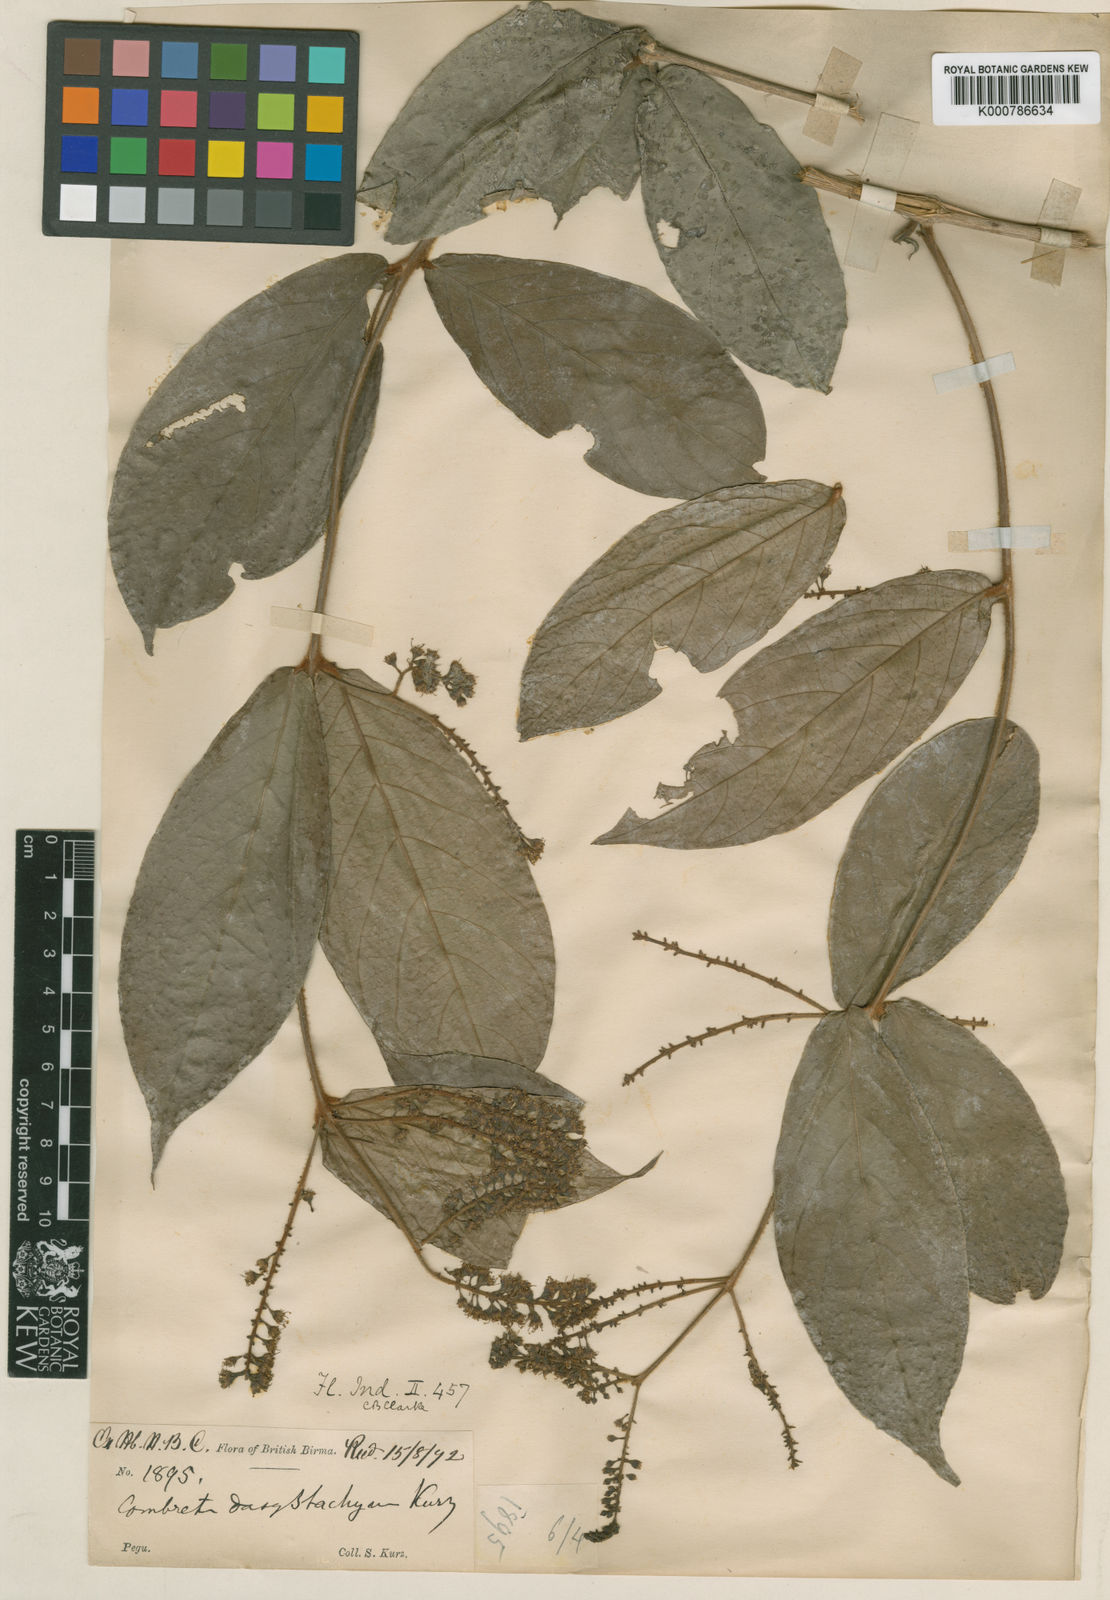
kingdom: Plantae
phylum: Tracheophyta
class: Magnoliopsida
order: Myrtales
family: Combretaceae
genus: Combretum
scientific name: Combretum
